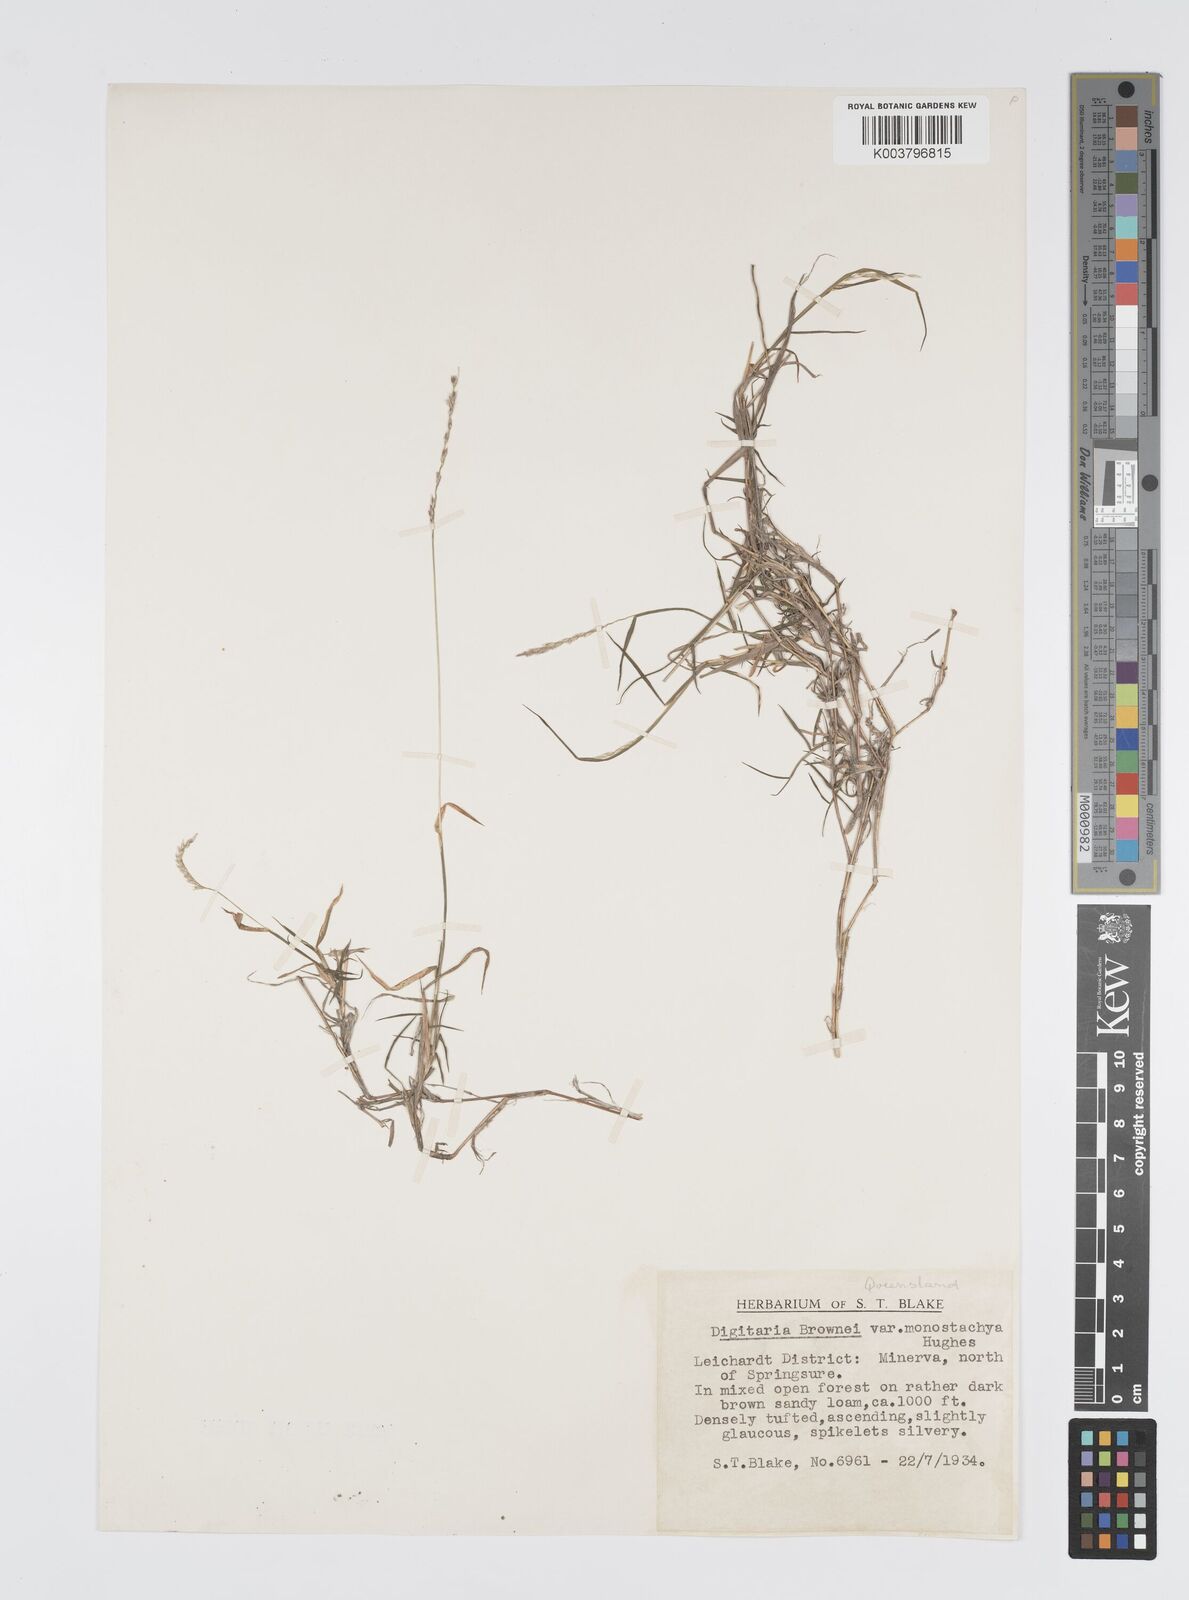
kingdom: Plantae
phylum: Tracheophyta
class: Liliopsida
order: Poales
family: Poaceae
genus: Digitaria
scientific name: Digitaria brownii
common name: Cotton grass
